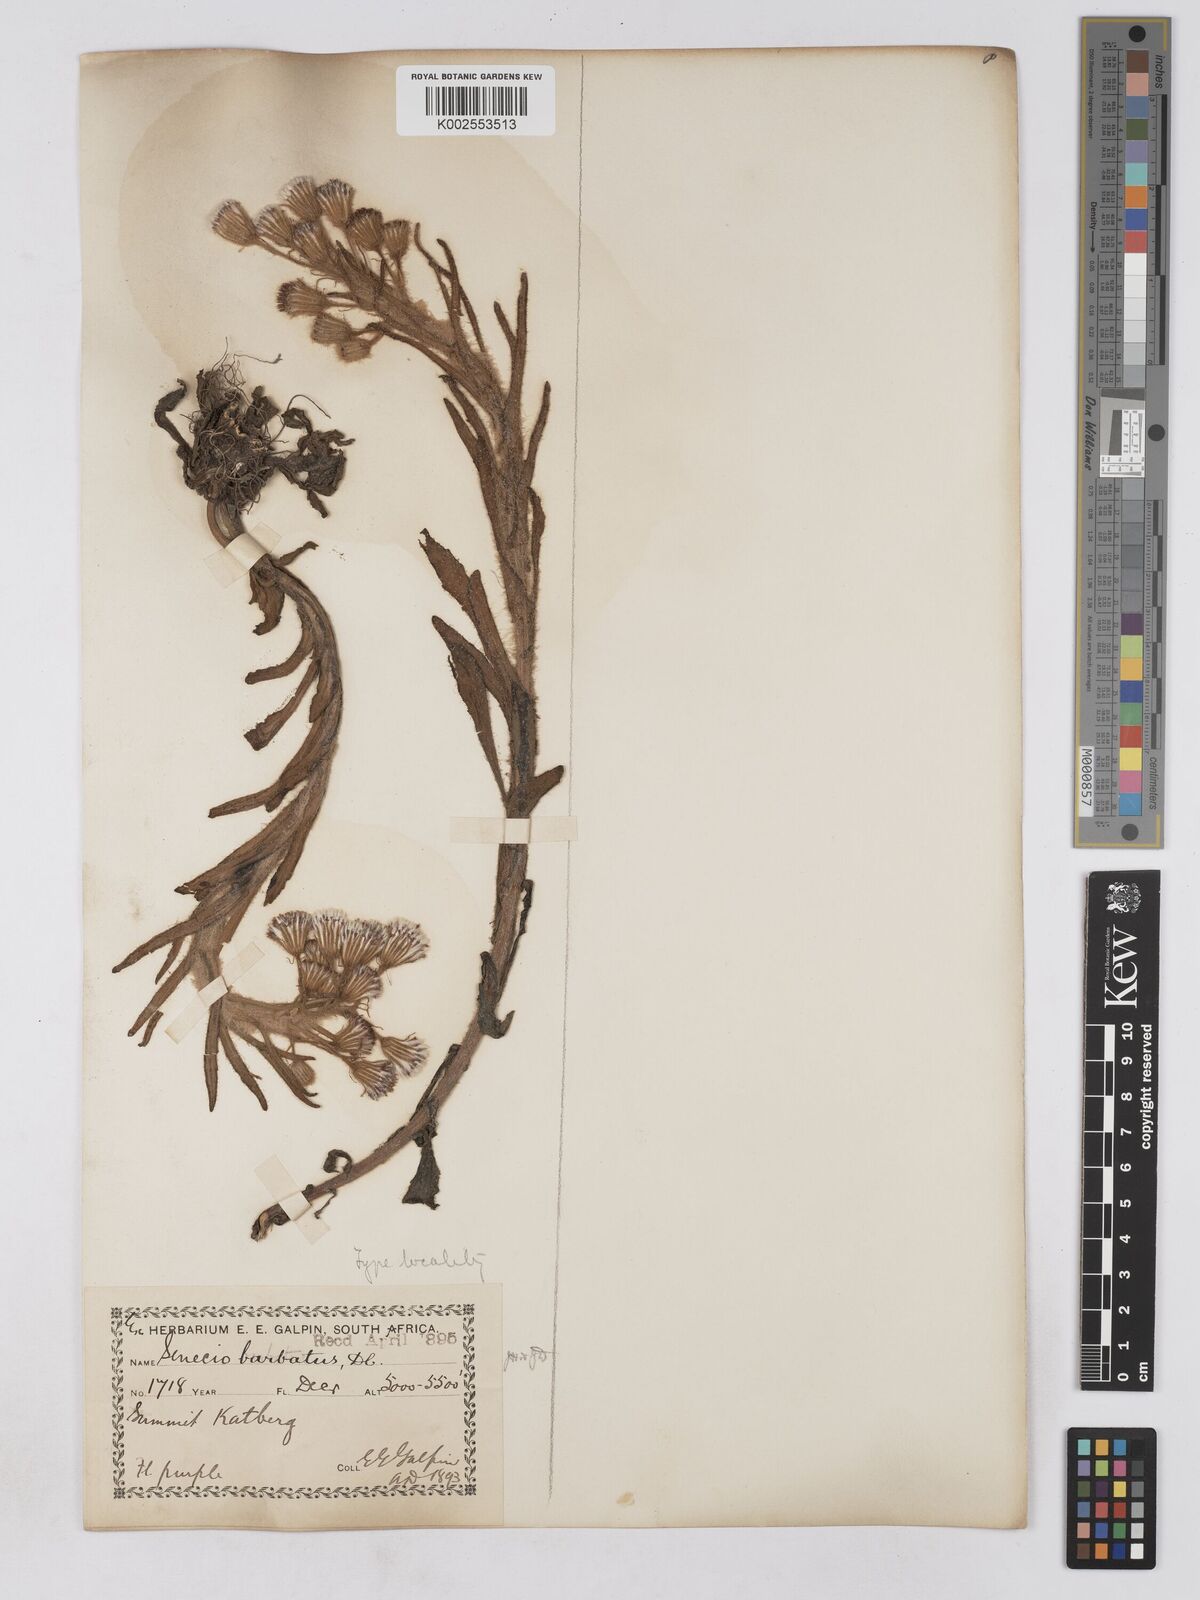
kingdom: Plantae
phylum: Tracheophyta
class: Magnoliopsida
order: Asterales
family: Asteraceae
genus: Senecio
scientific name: Senecio barbatus
